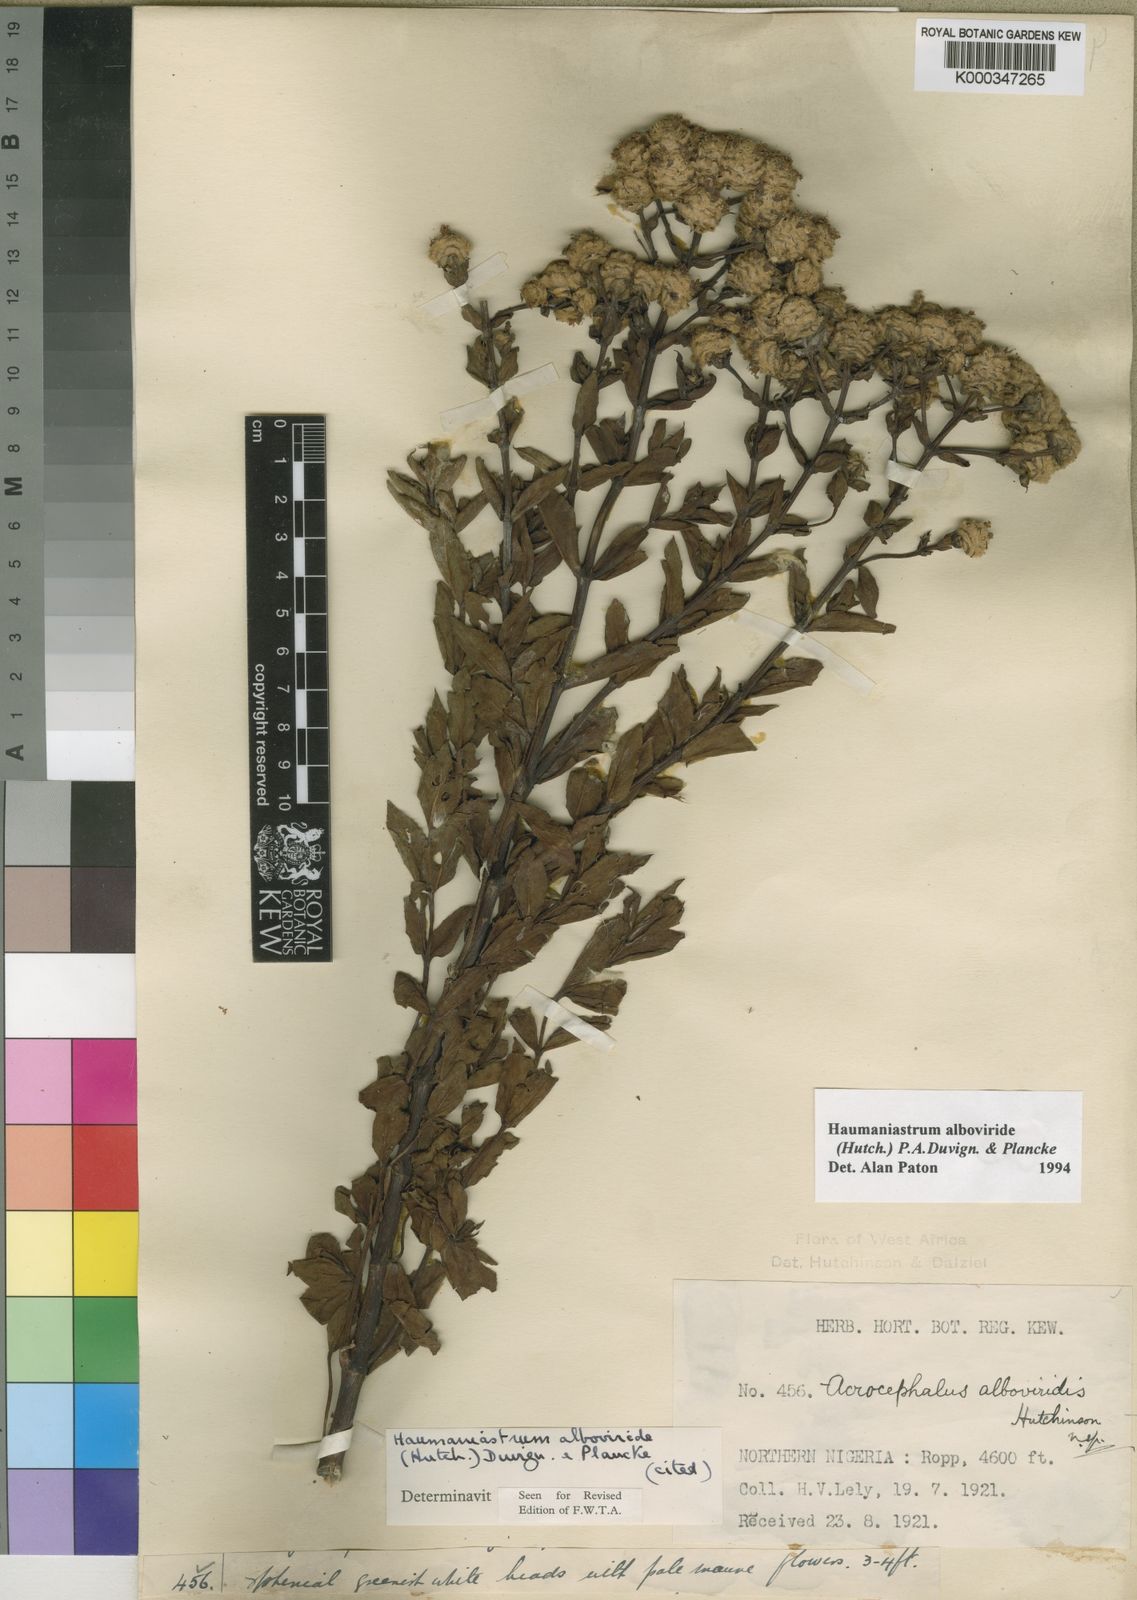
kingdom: Plantae
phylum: Tracheophyta
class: Magnoliopsida
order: Lamiales
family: Lamiaceae
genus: Haumaniastrum
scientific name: Haumaniastrum alboviride
